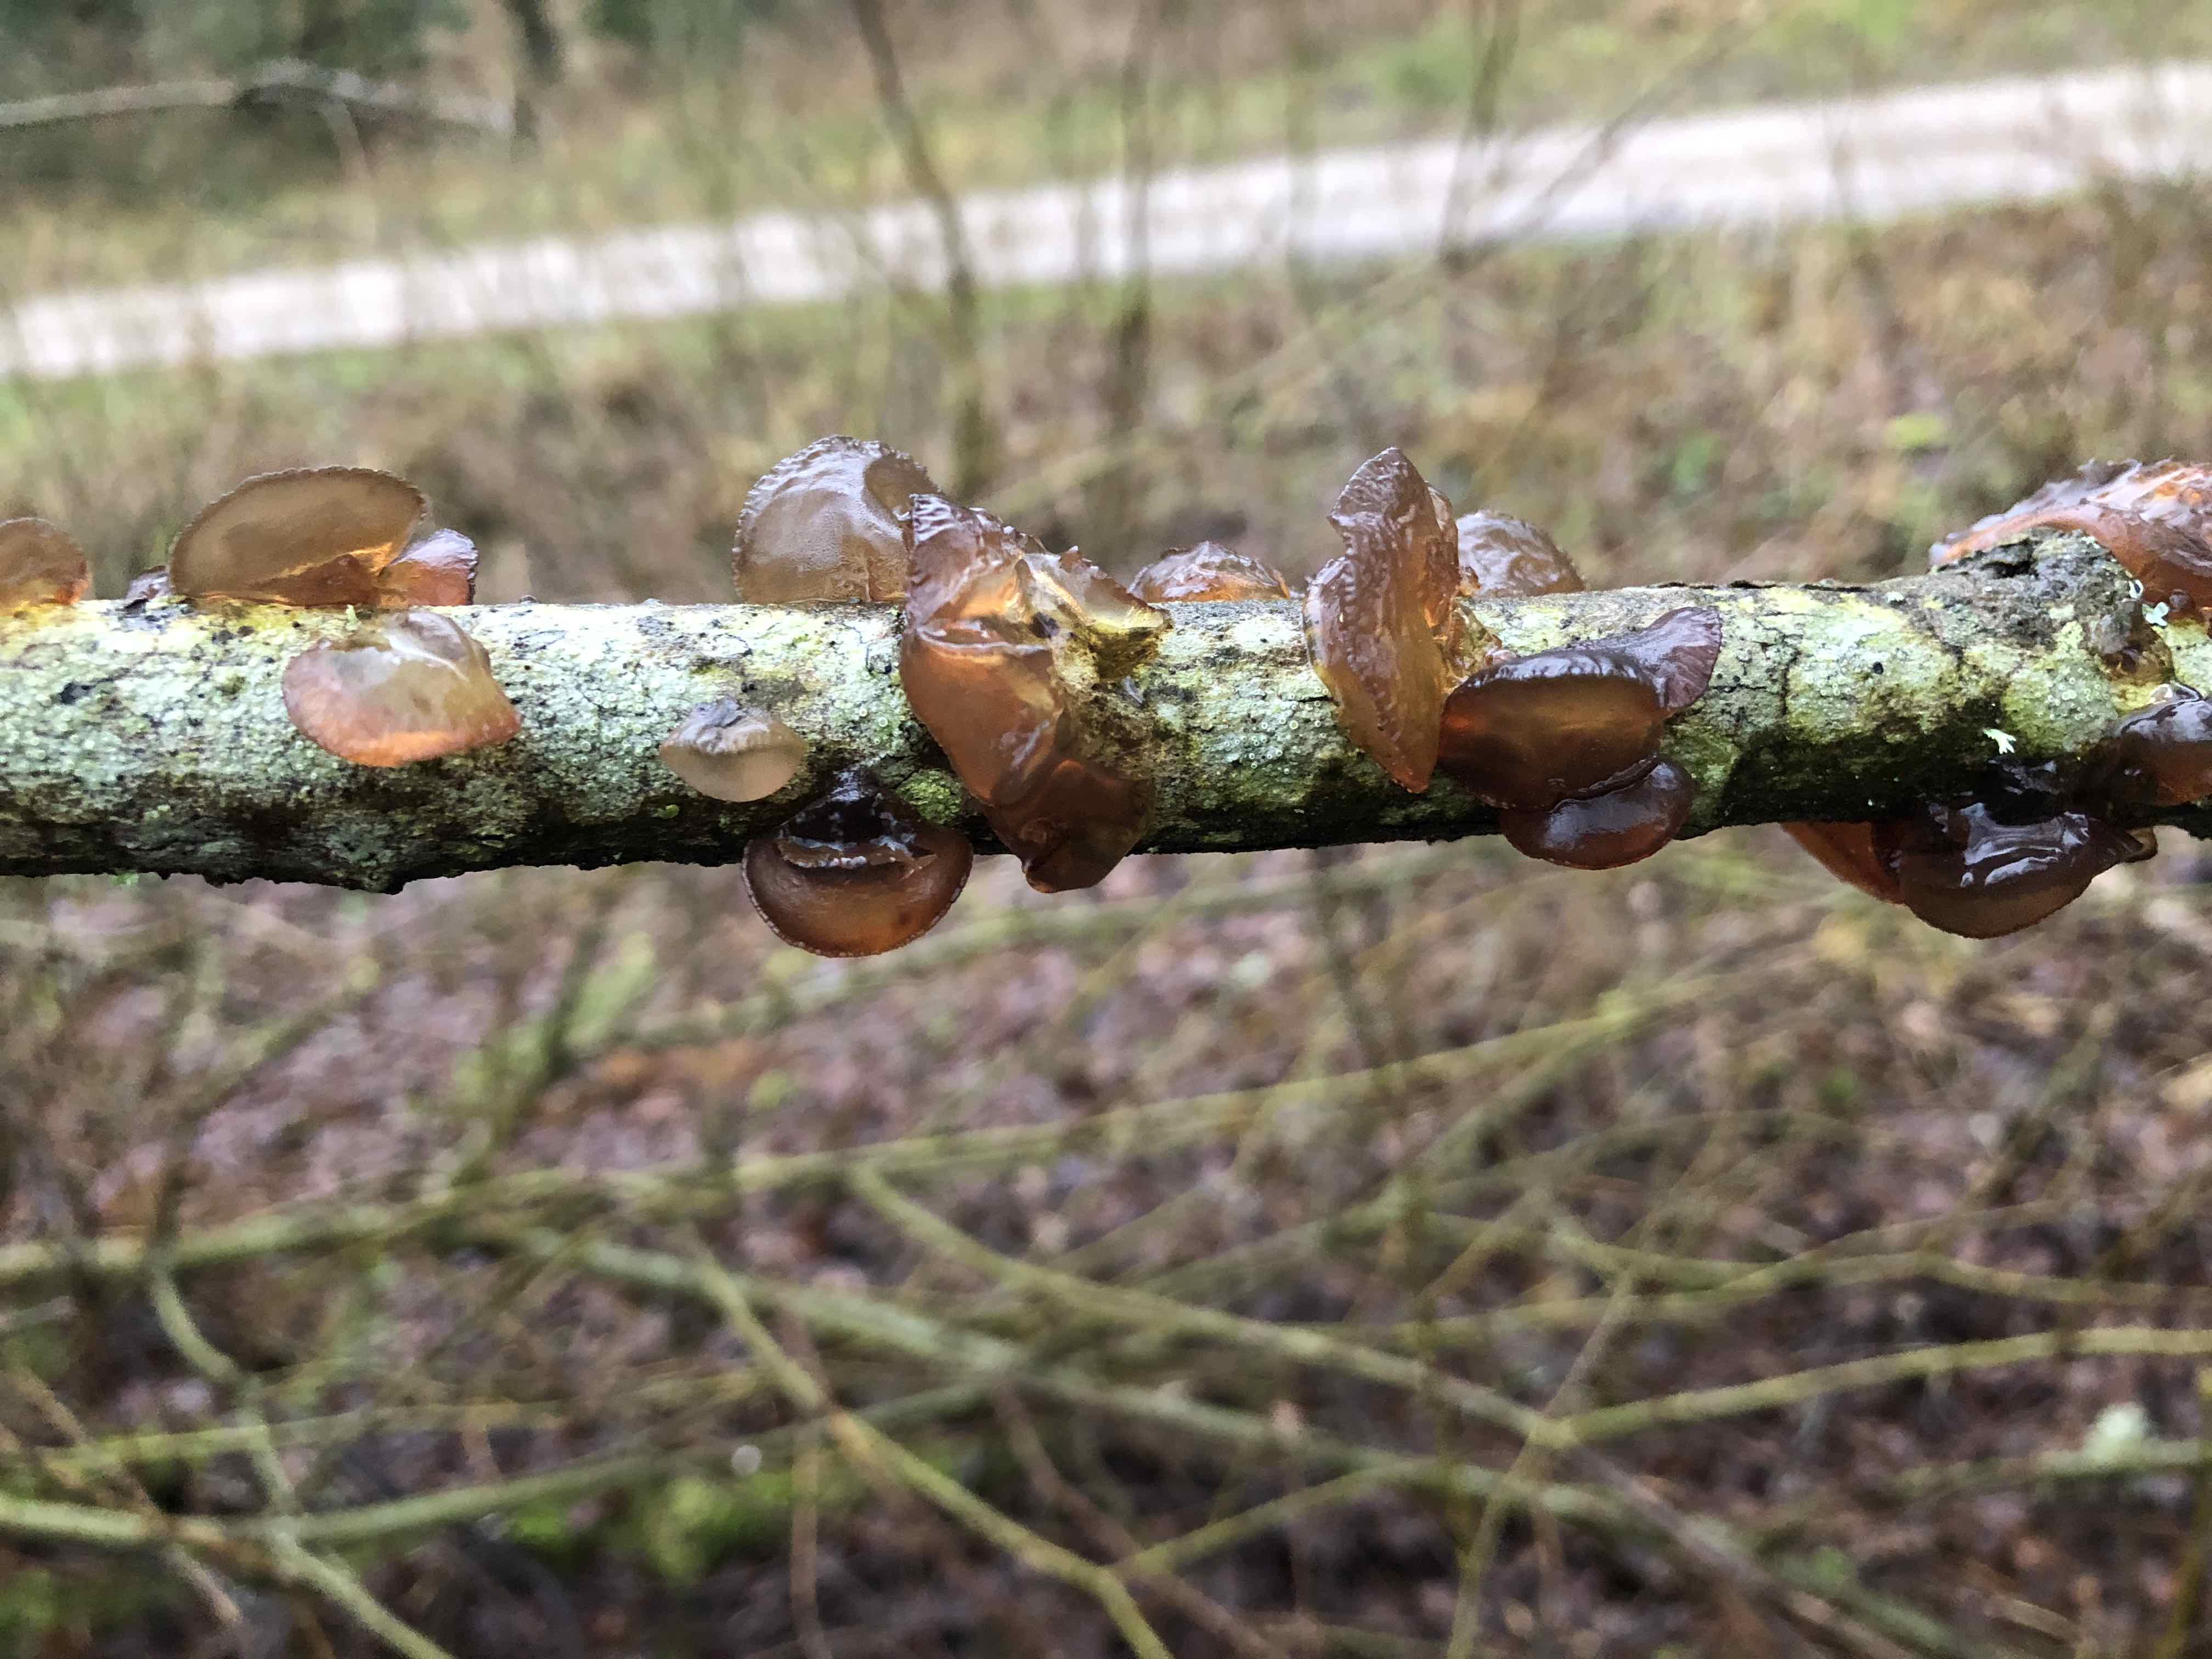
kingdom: Fungi
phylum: Basidiomycota
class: Agaricomycetes
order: Auriculariales
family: Auriculariaceae
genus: Exidia
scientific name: Exidia recisa
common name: pile-bævretop
